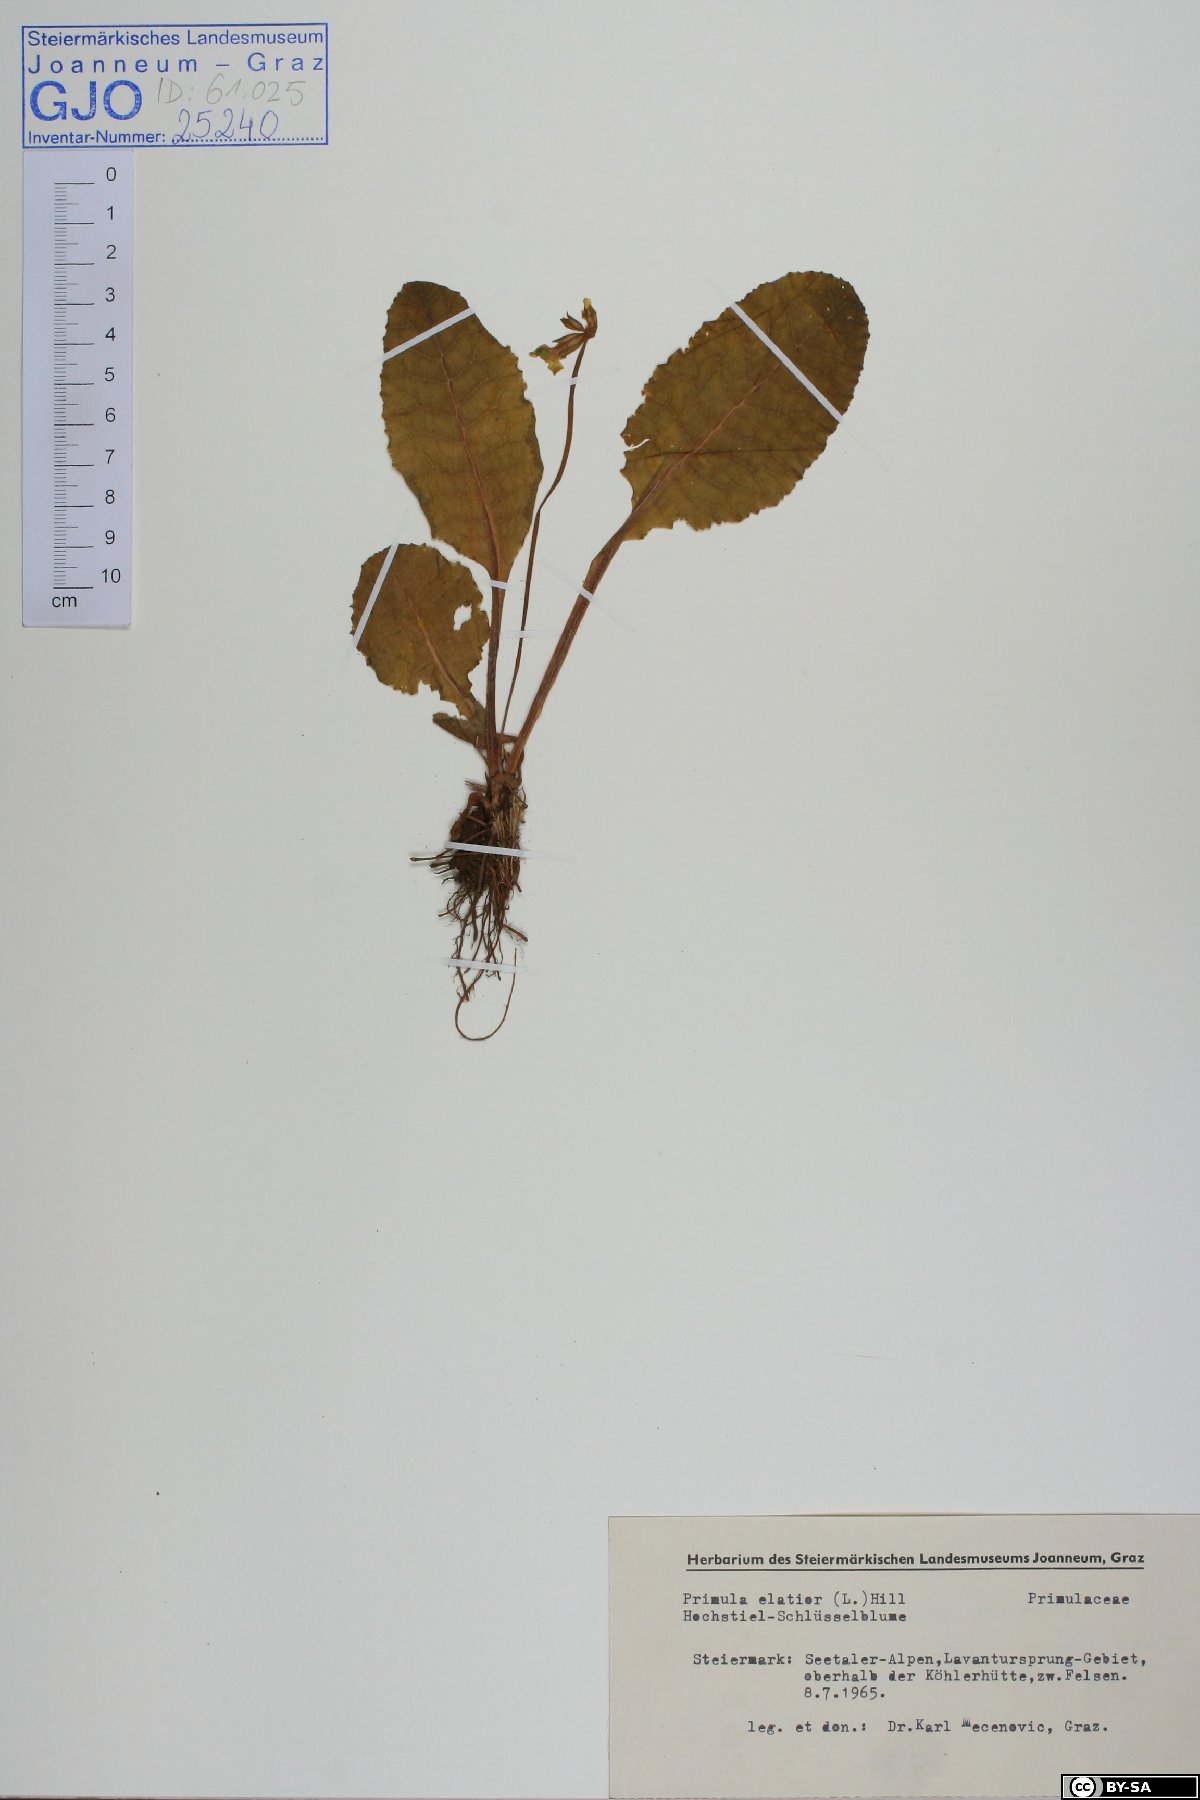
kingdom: Plantae
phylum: Tracheophyta
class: Magnoliopsida
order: Ericales
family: Primulaceae
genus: Primula
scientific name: Primula elatior
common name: Oxlip
